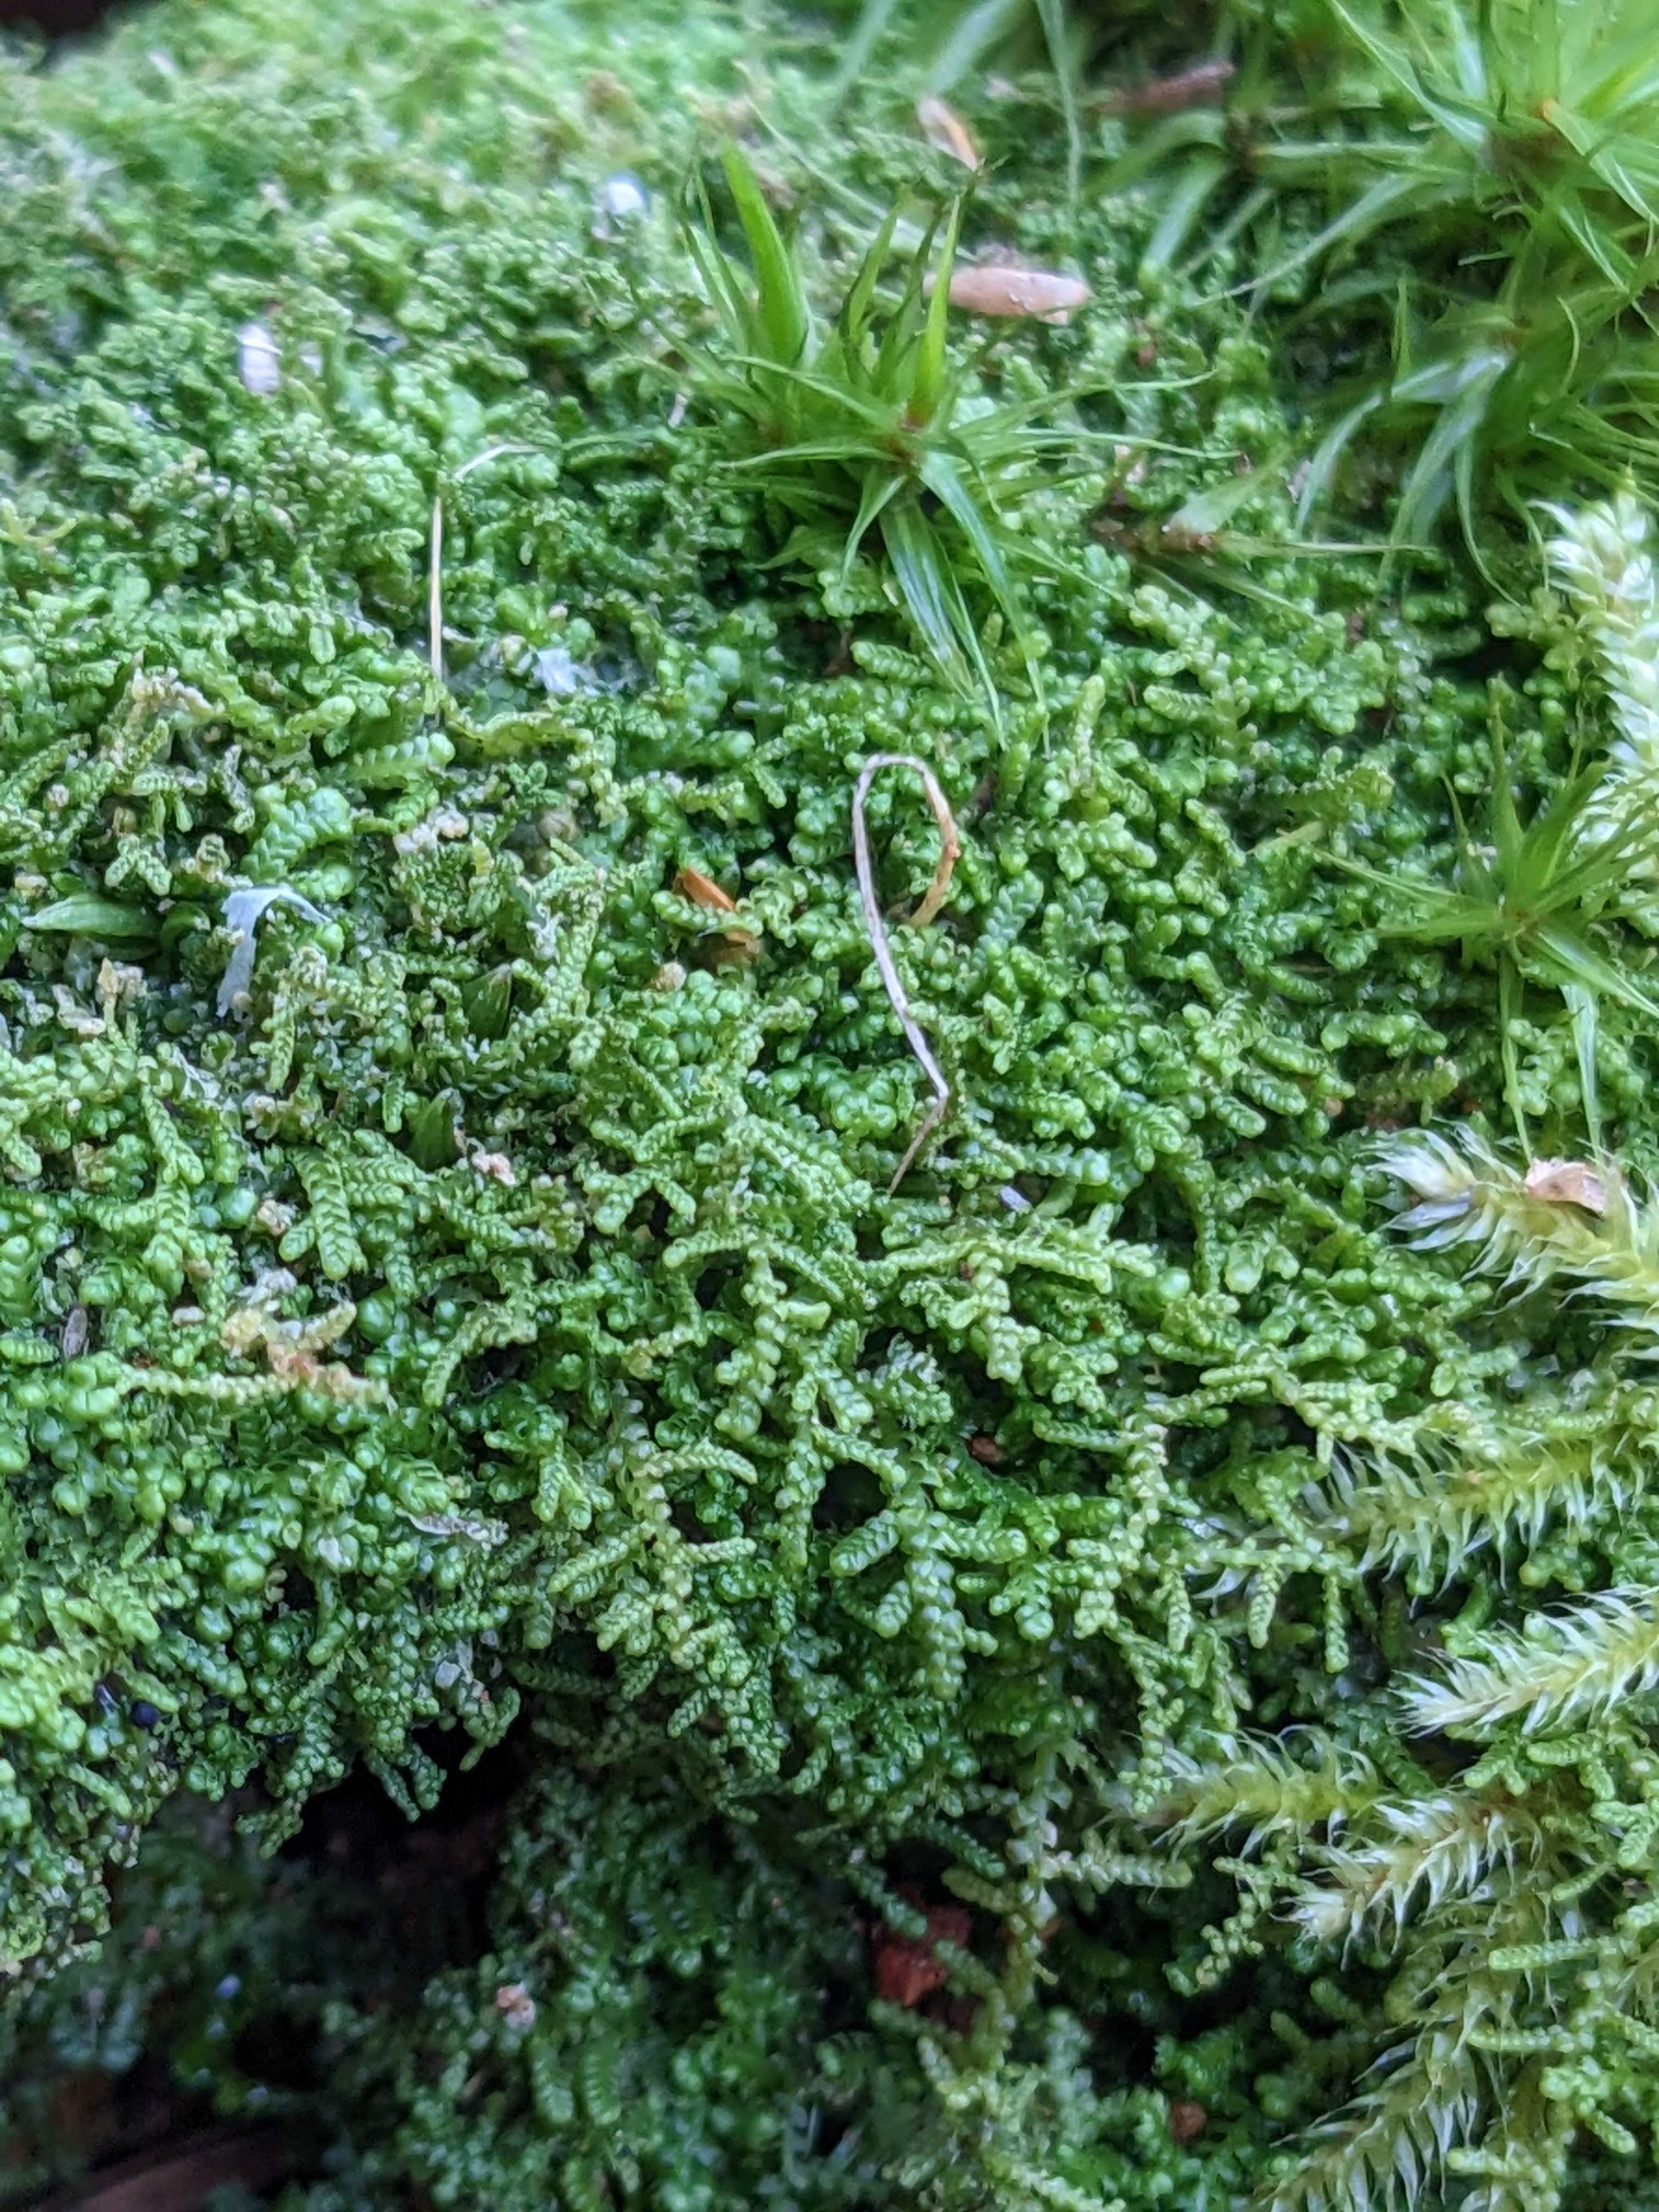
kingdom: Plantae
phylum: Marchantiophyta
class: Jungermanniopsida
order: Jungermanniales
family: Lepidoziaceae
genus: Lepidozia
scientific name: Lepidozia reptans
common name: Krybende fingermos
